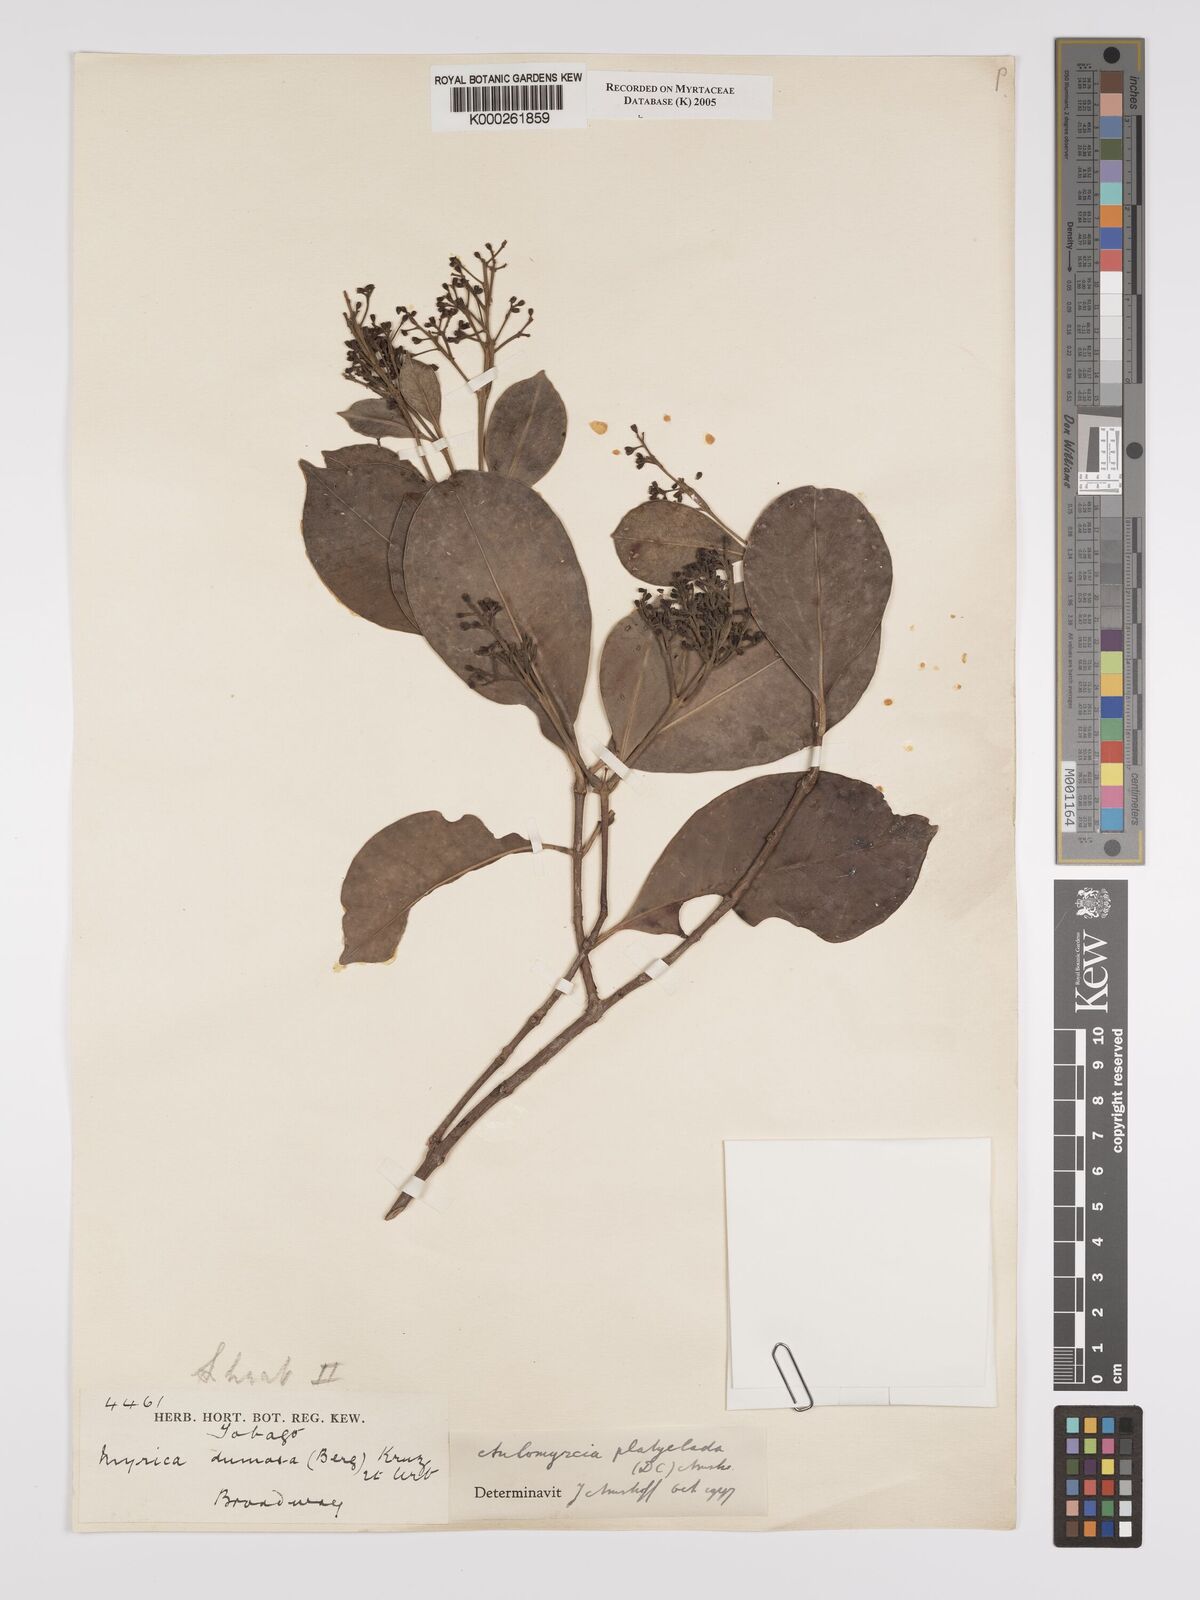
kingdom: Plantae
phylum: Tracheophyta
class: Magnoliopsida
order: Myrtales
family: Myrtaceae
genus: Myrcia
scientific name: Myrcia platyclada
